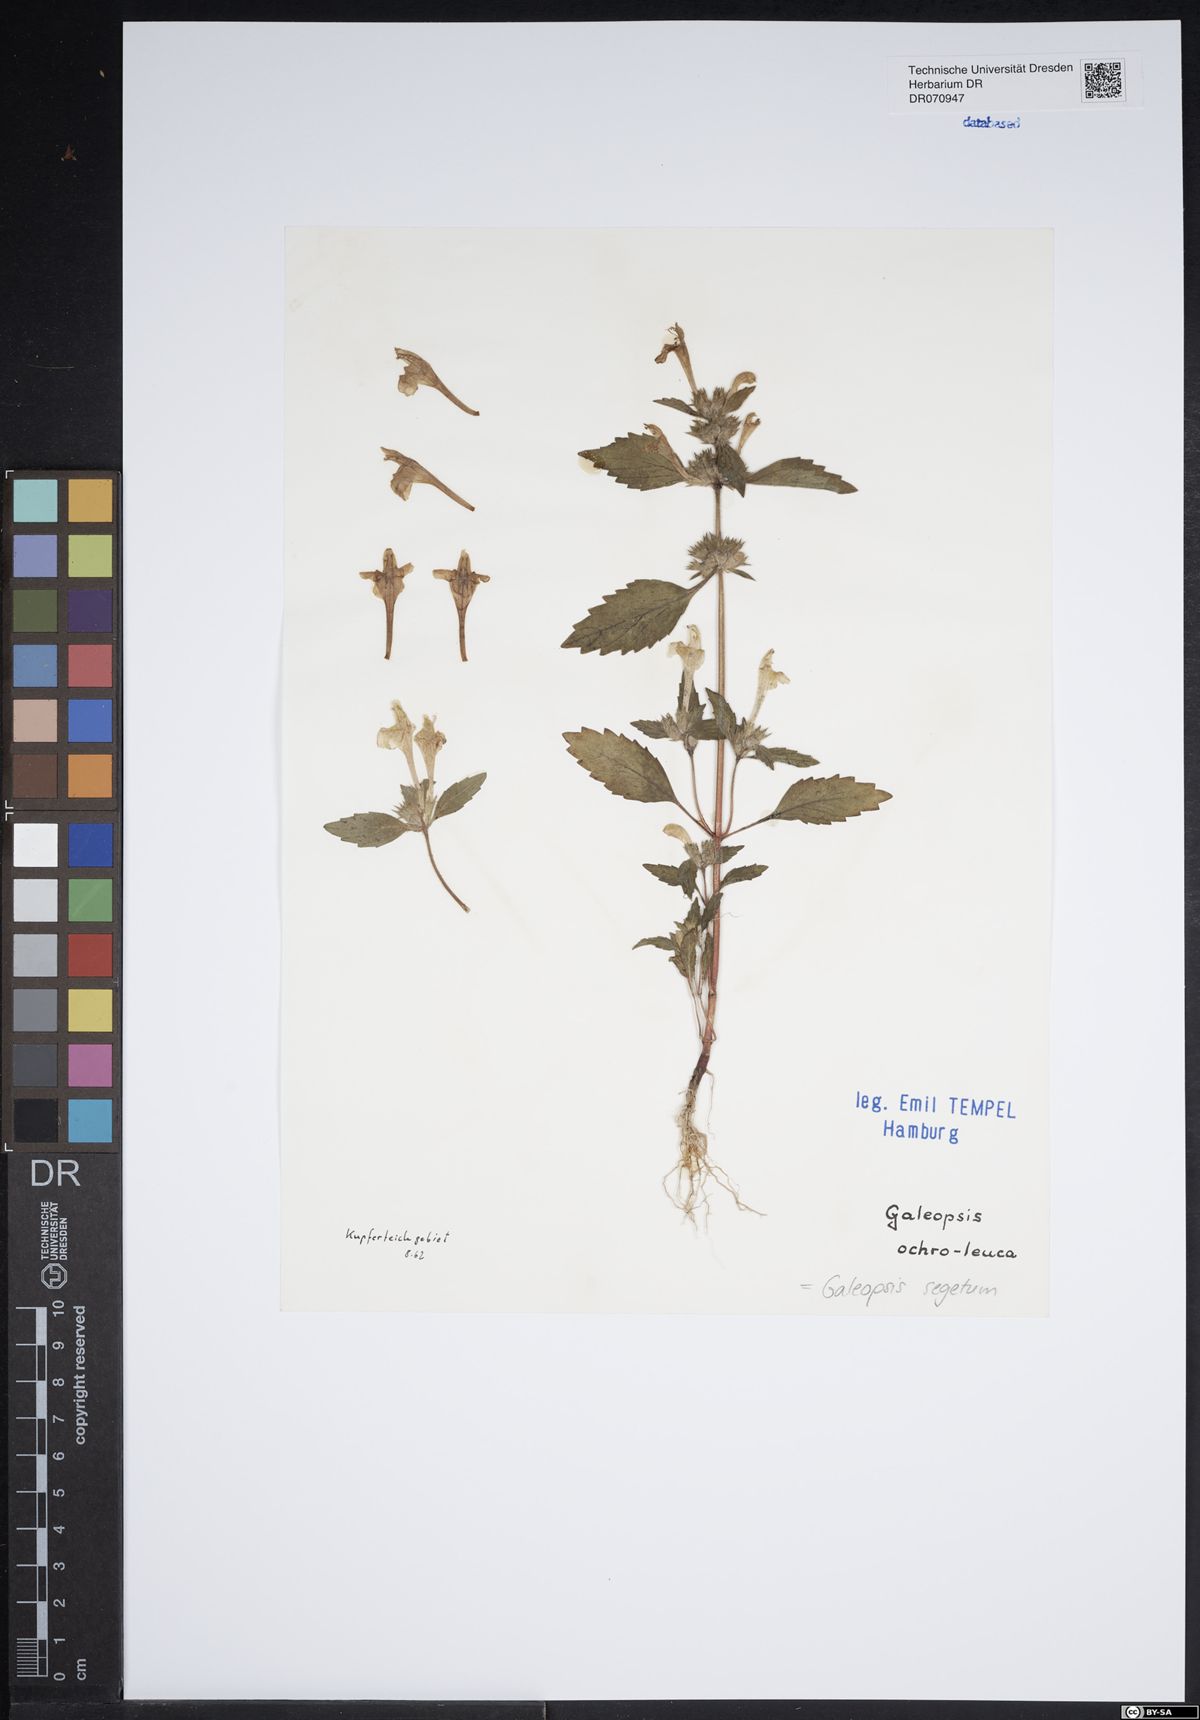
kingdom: Plantae
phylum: Tracheophyta
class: Magnoliopsida
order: Lamiales
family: Lamiaceae
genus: Galeopsis
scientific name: Galeopsis segetum
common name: Downy hemp-nettle
